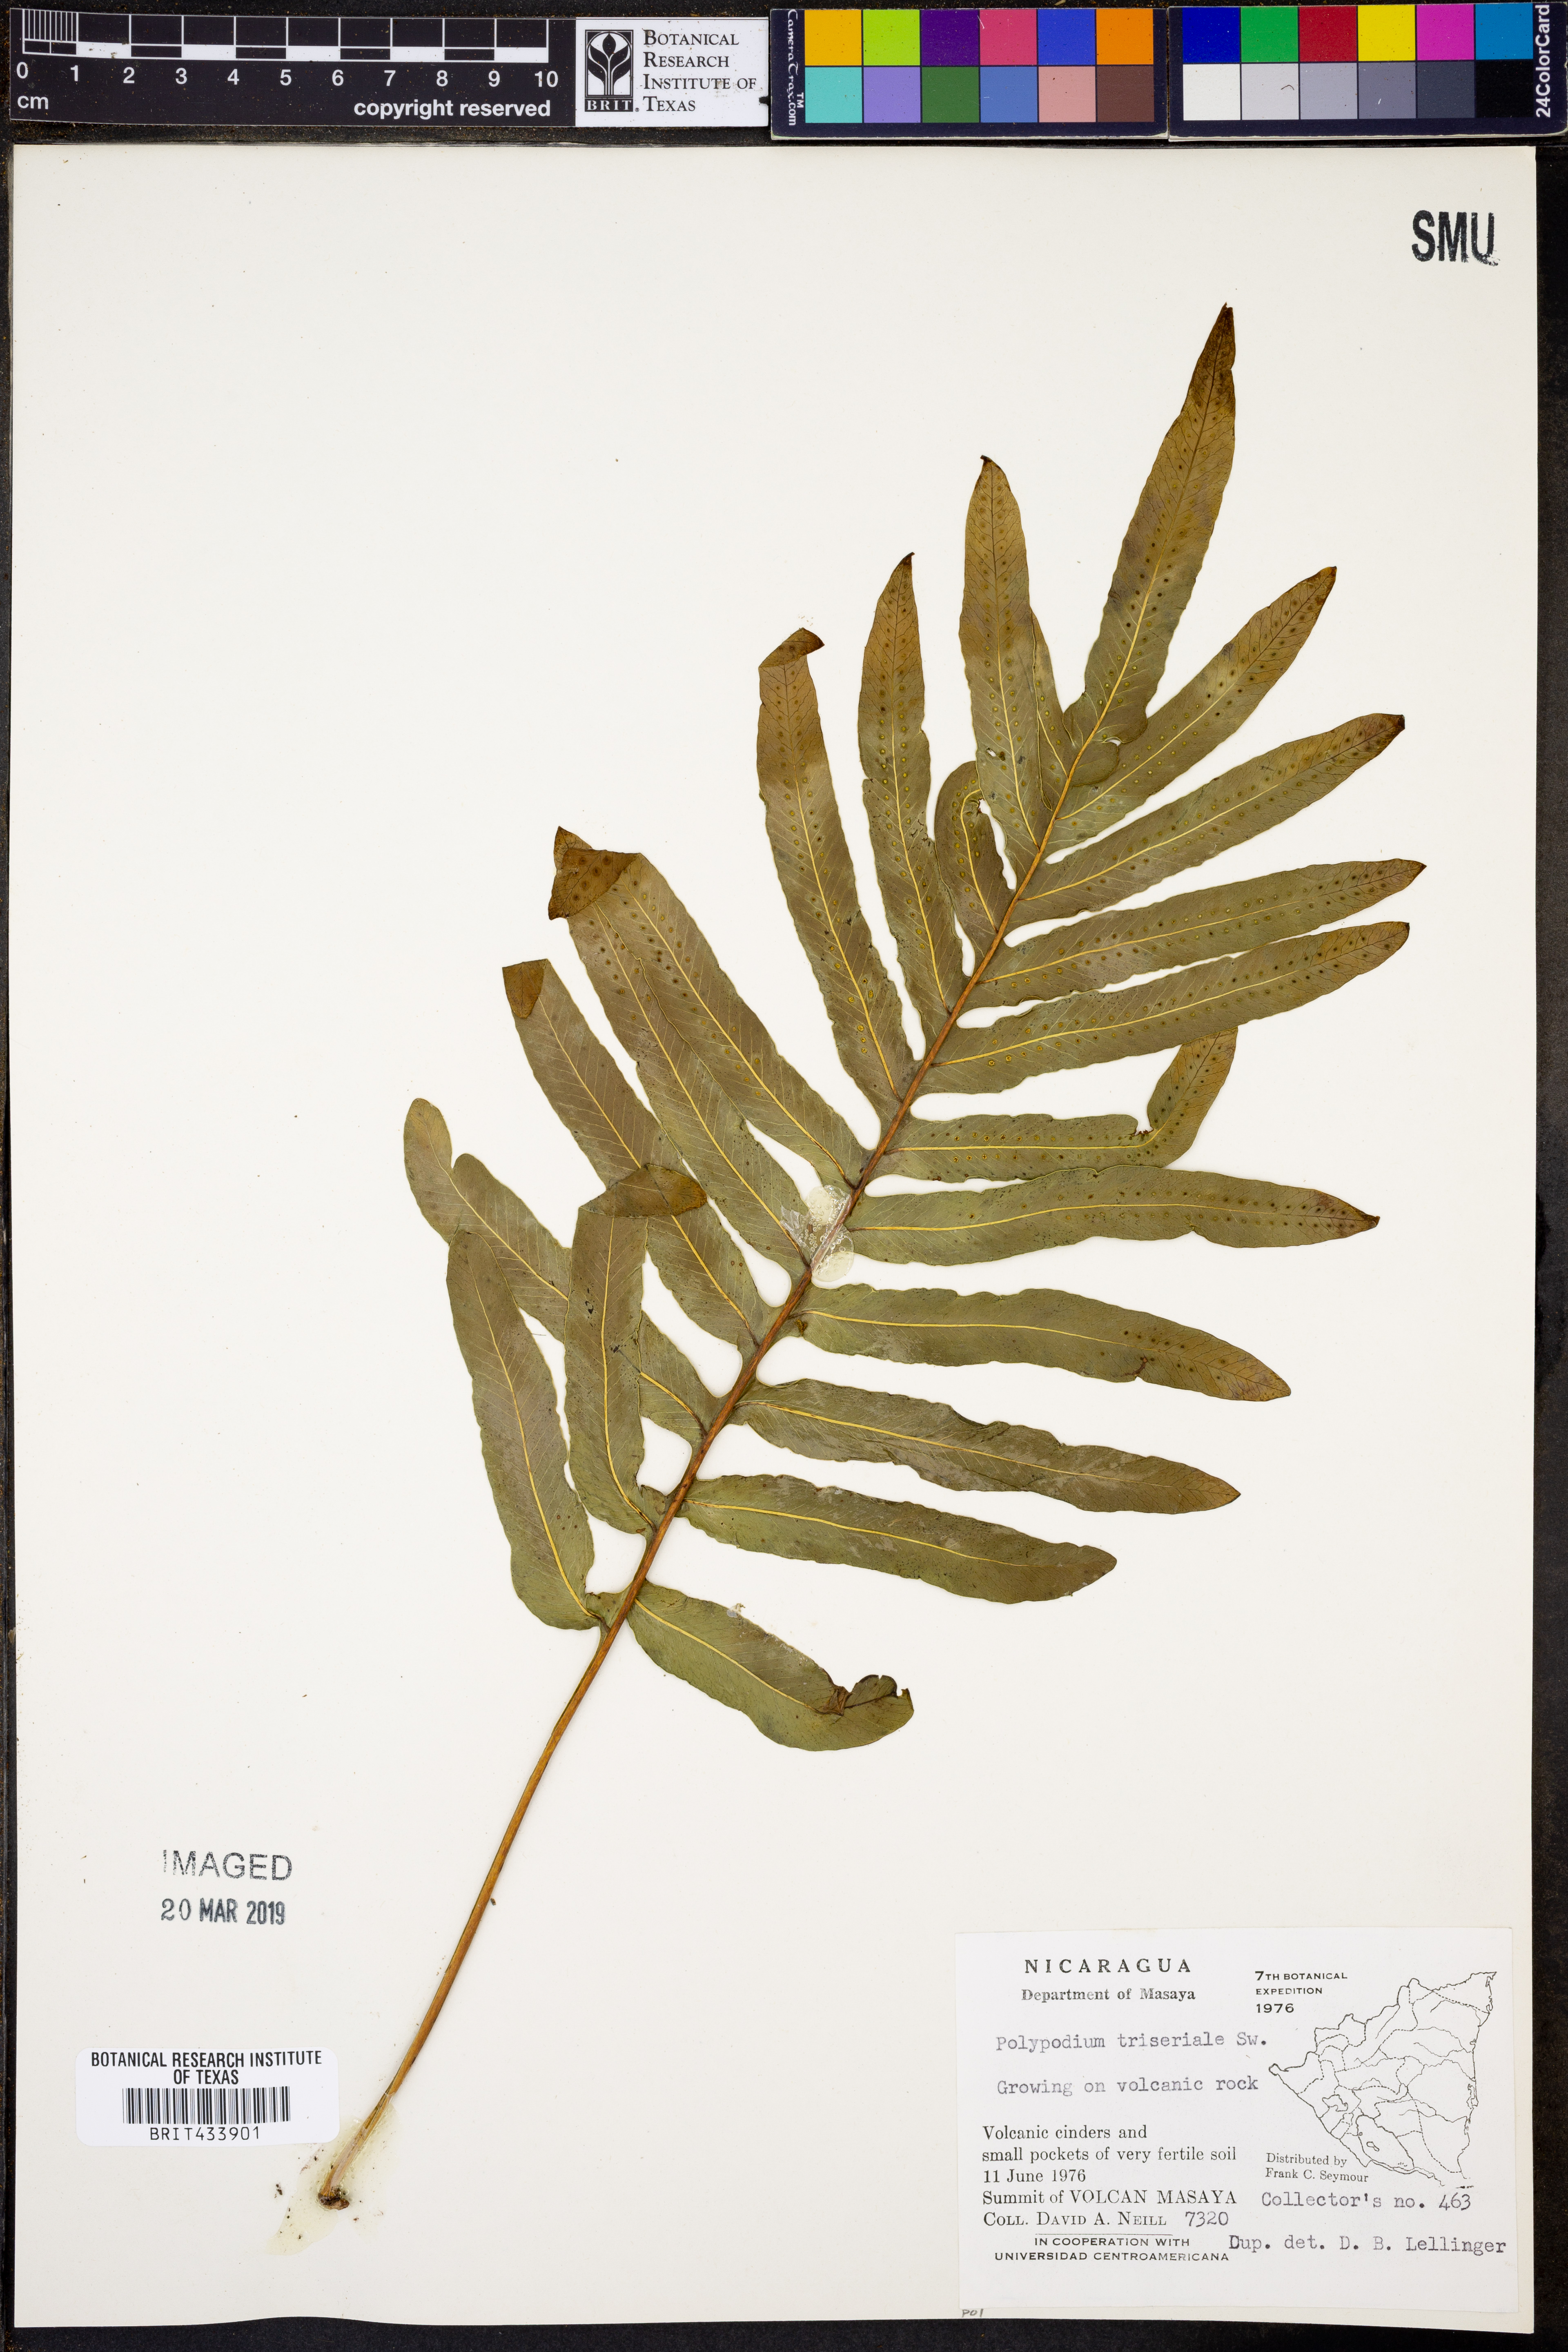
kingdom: Plantae
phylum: Tracheophyta
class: Polypodiopsida
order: Polypodiales
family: Polypodiaceae
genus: Serpocaulon
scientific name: Serpocaulon triseriale
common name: Angle-vein fern
